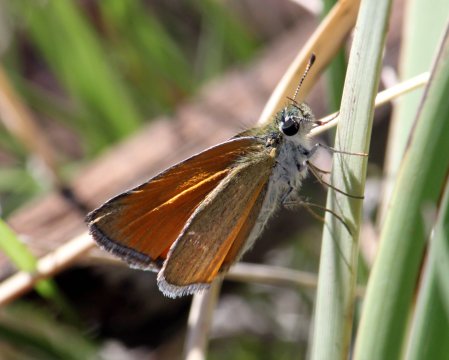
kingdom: Animalia
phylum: Arthropoda
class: Insecta
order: Lepidoptera
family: Hesperiidae
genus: Oarisma
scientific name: Oarisma edwardsii
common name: Edwards' Skipperling
